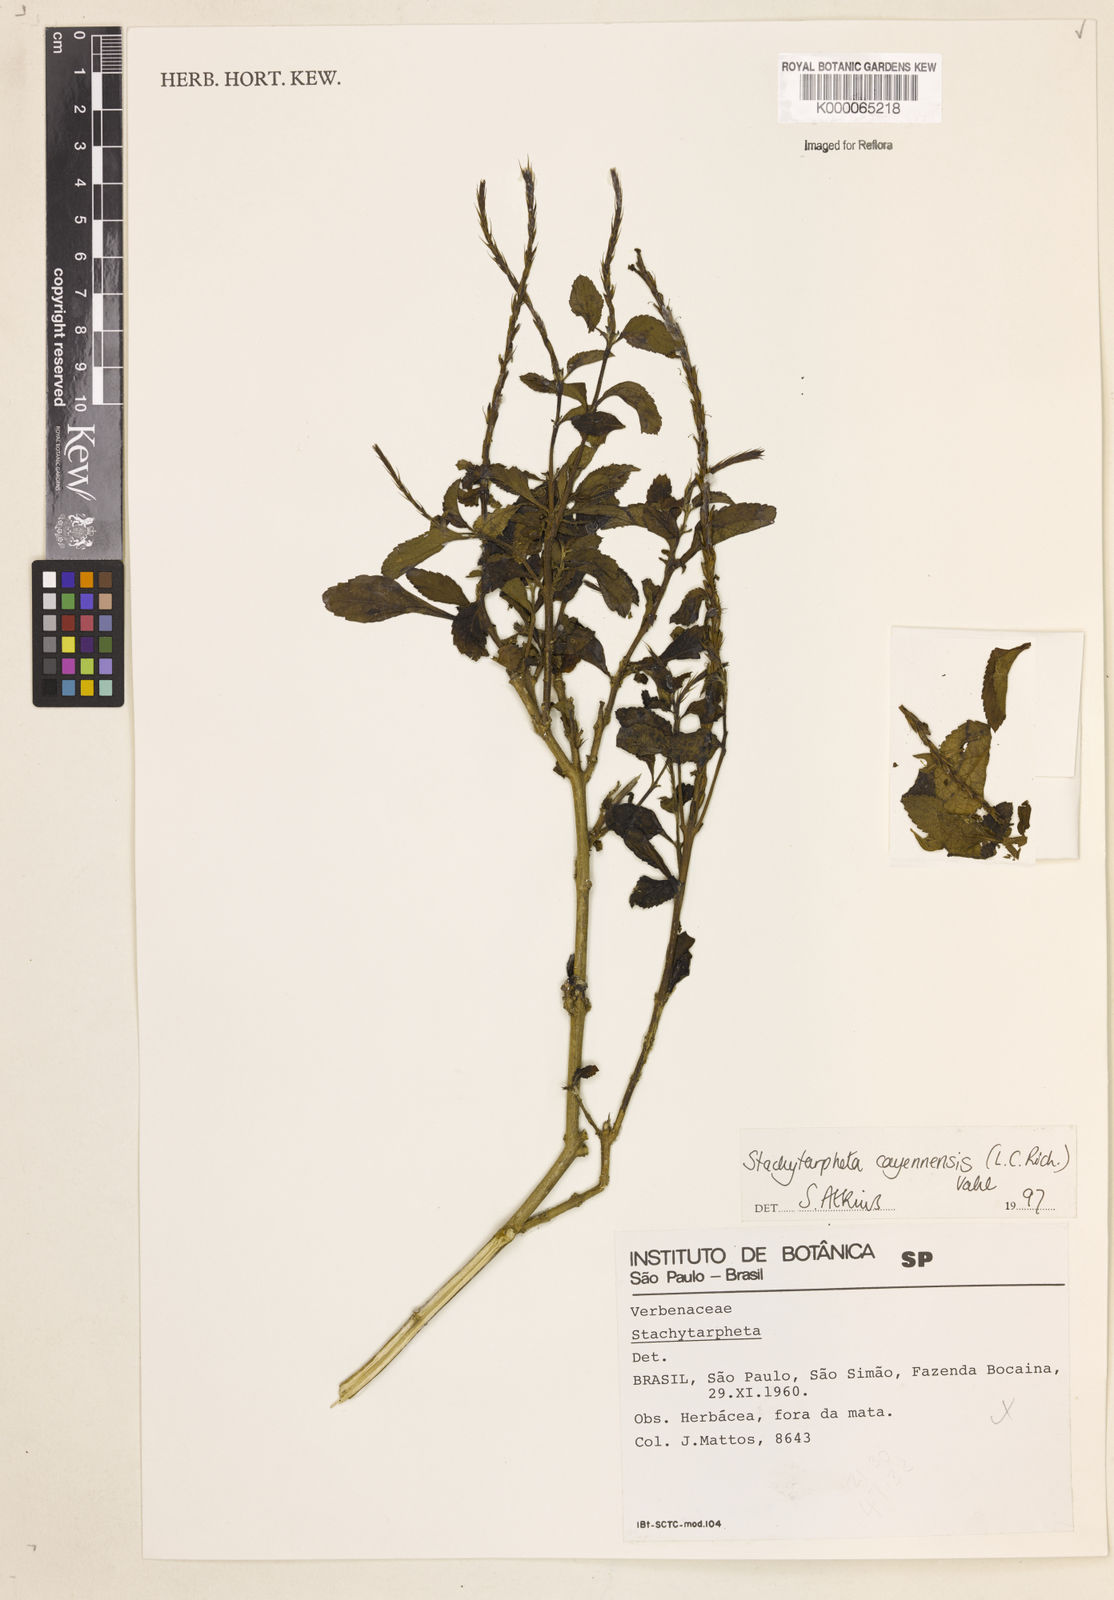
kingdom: Plantae
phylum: Tracheophyta
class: Magnoliopsida
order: Lamiales
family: Verbenaceae
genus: Stachytarpheta
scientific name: Stachytarpheta cayennensis
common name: Cayenne porterweed
